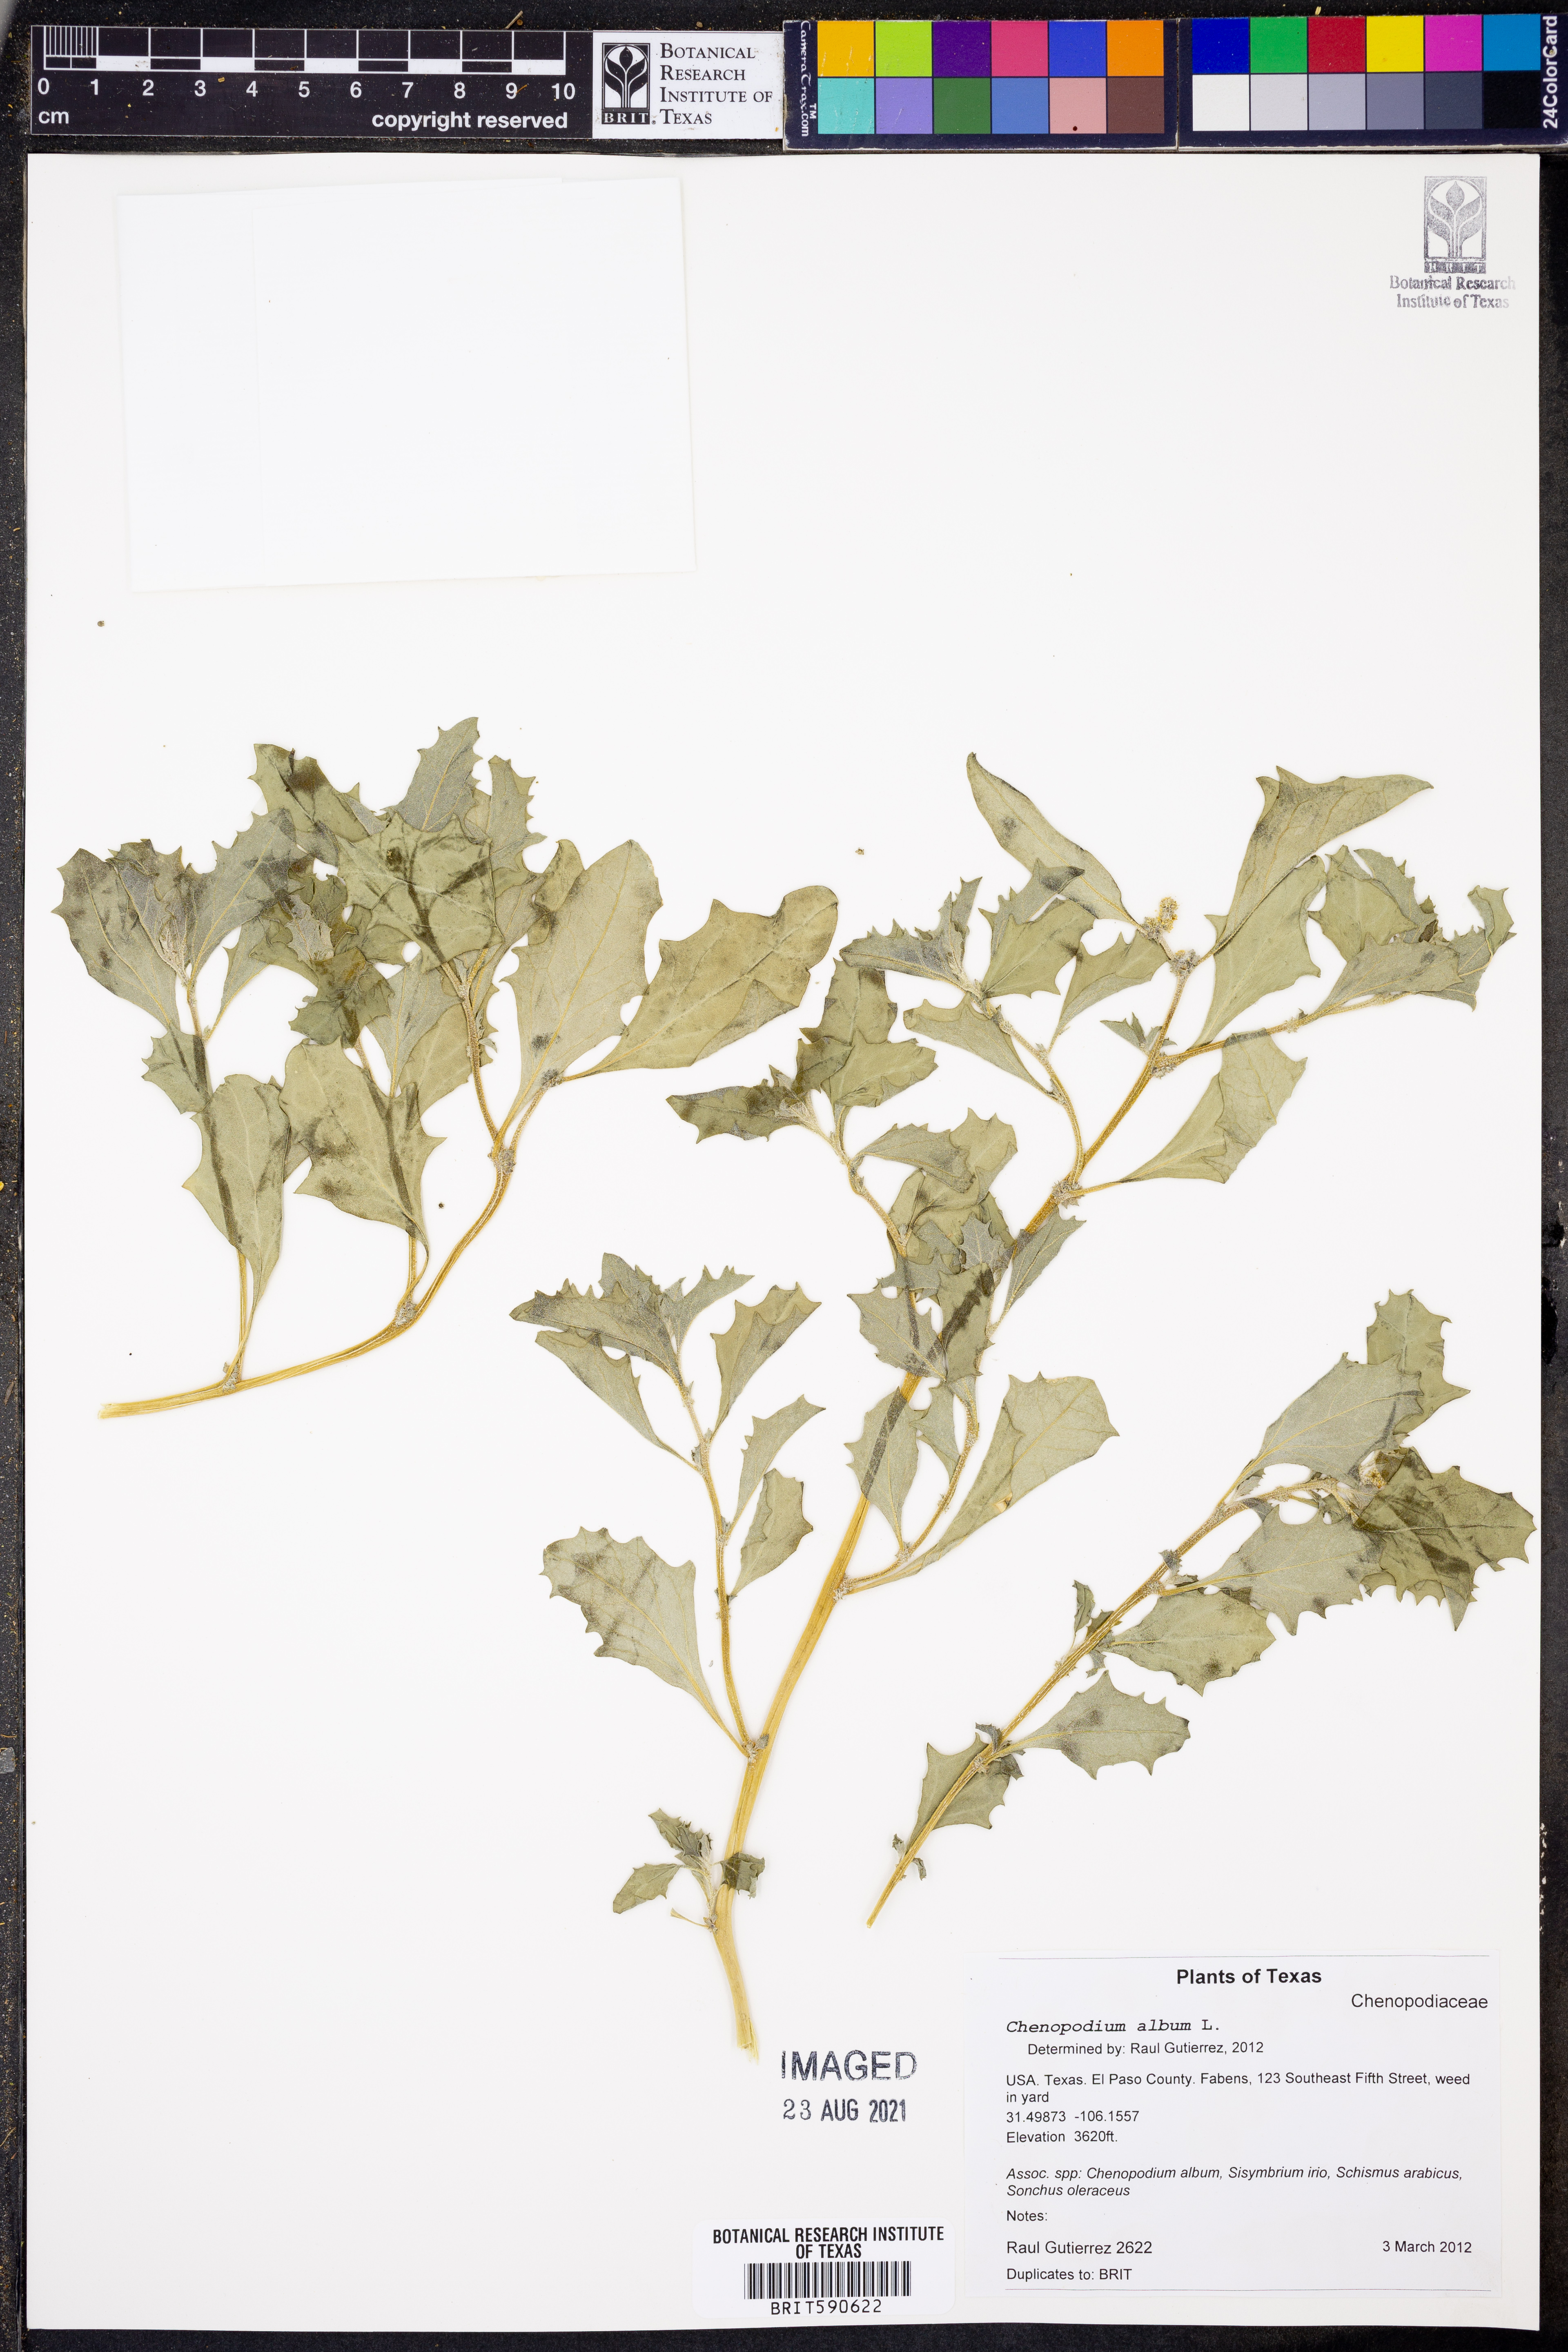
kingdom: Plantae
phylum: Tracheophyta
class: Magnoliopsida
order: Caryophyllales
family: Amaranthaceae
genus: Chenopodium
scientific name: Chenopodium album
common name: Fat-hen
